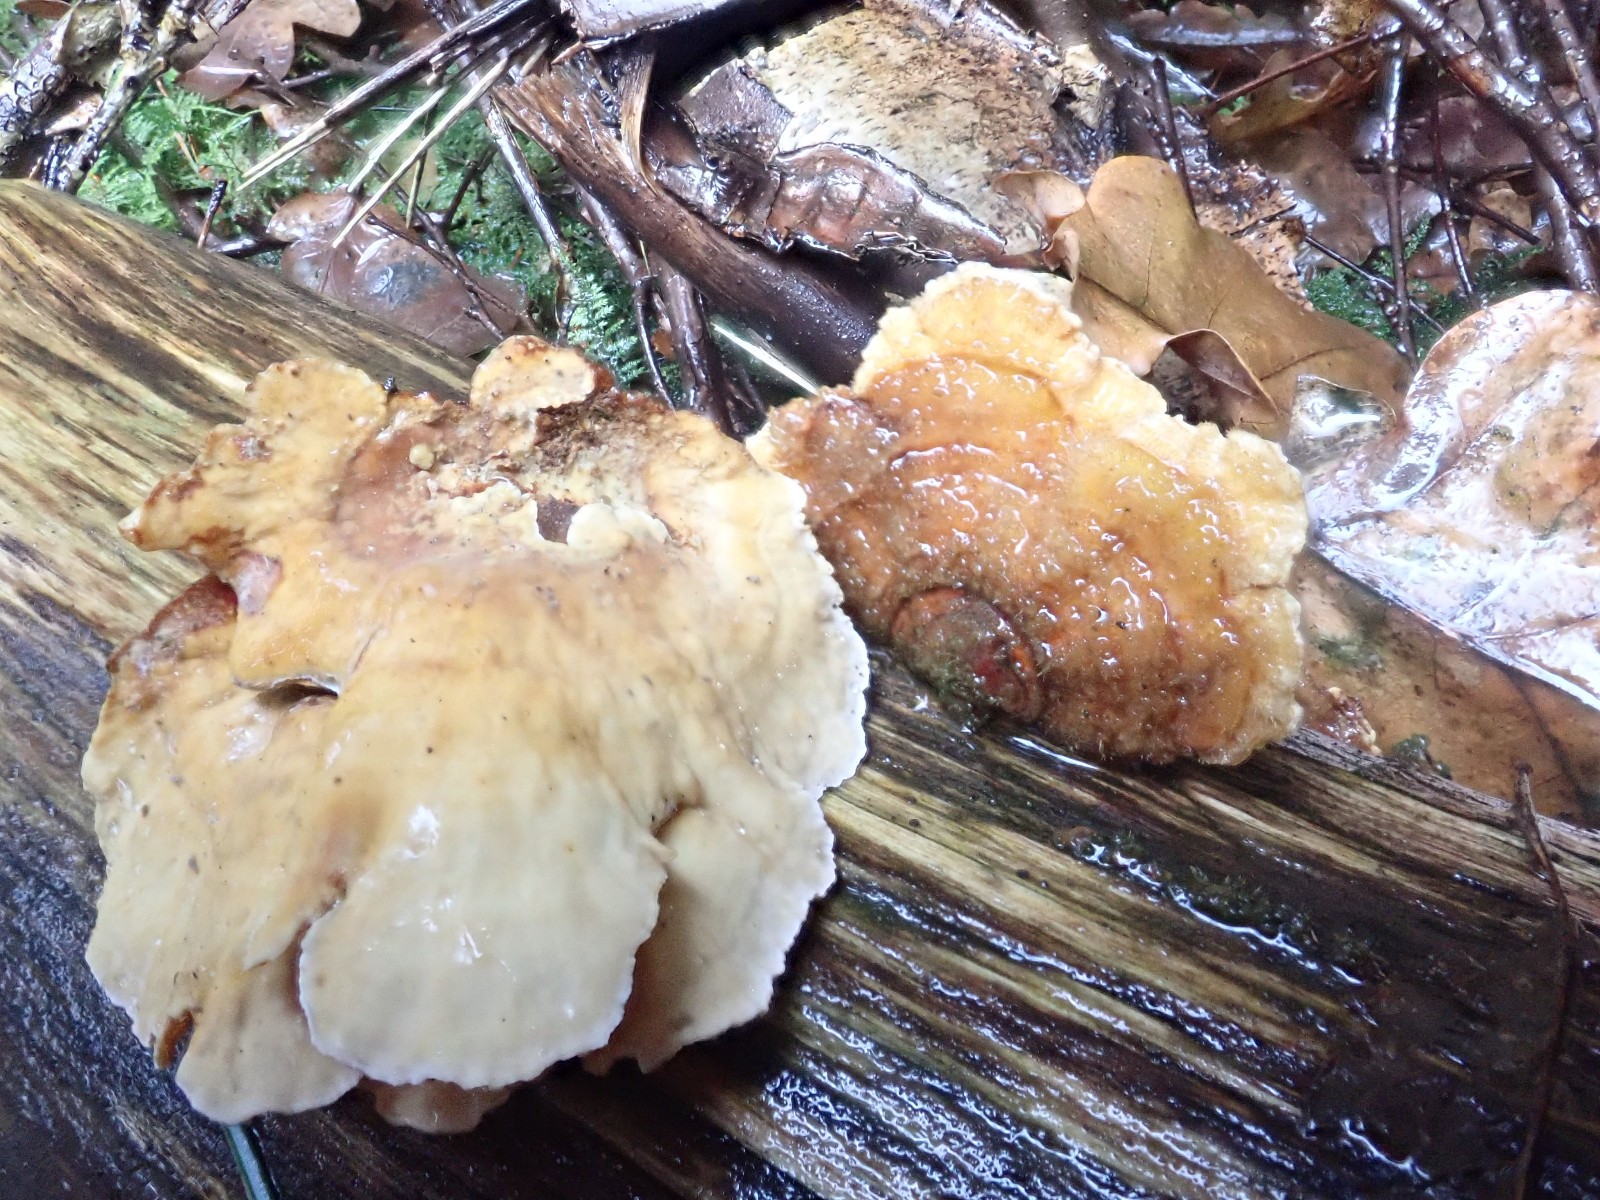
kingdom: Fungi
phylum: Basidiomycota
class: Agaricomycetes
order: Russulales
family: Stereaceae
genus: Stereum
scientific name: Stereum hirsutum
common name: håret lædersvamp
